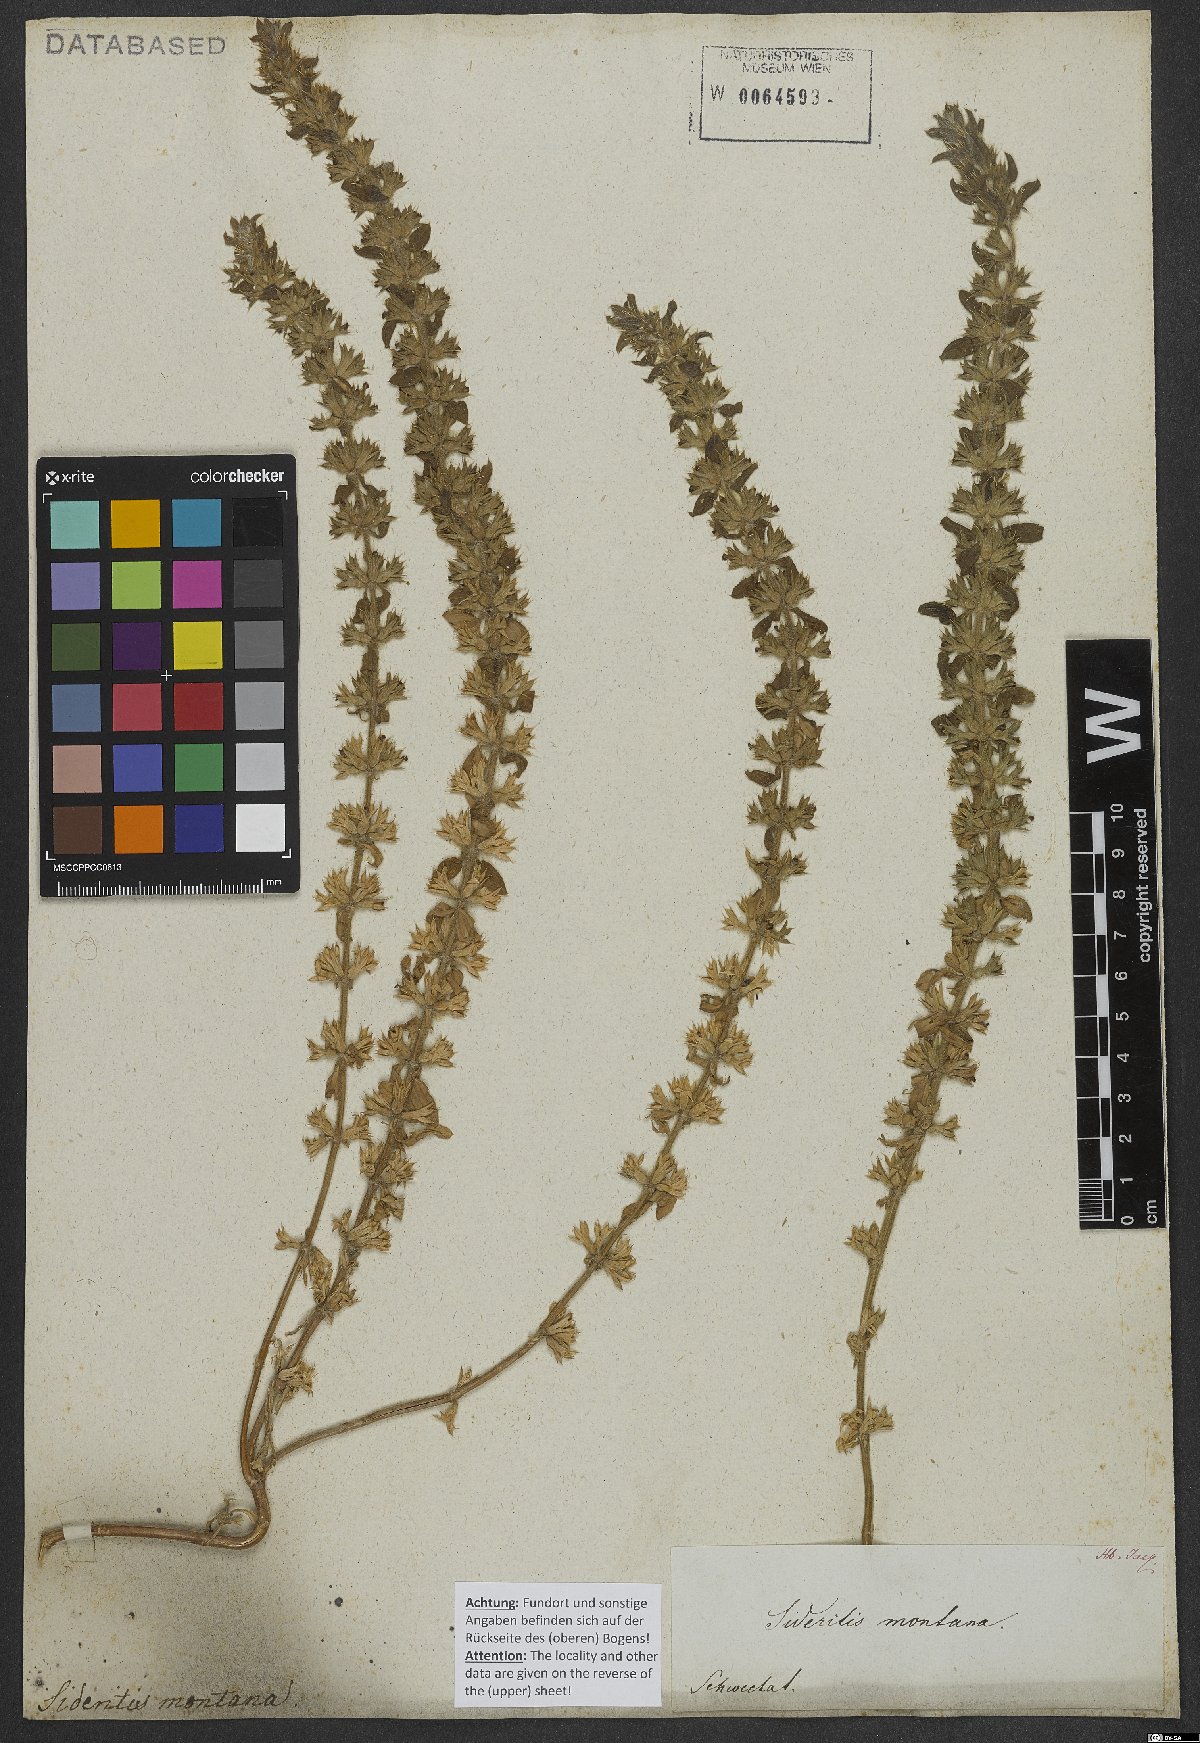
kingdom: Plantae
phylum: Tracheophyta
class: Magnoliopsida
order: Lamiales
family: Lamiaceae
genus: Sideritis
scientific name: Sideritis montana
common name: Mountain ironwort
